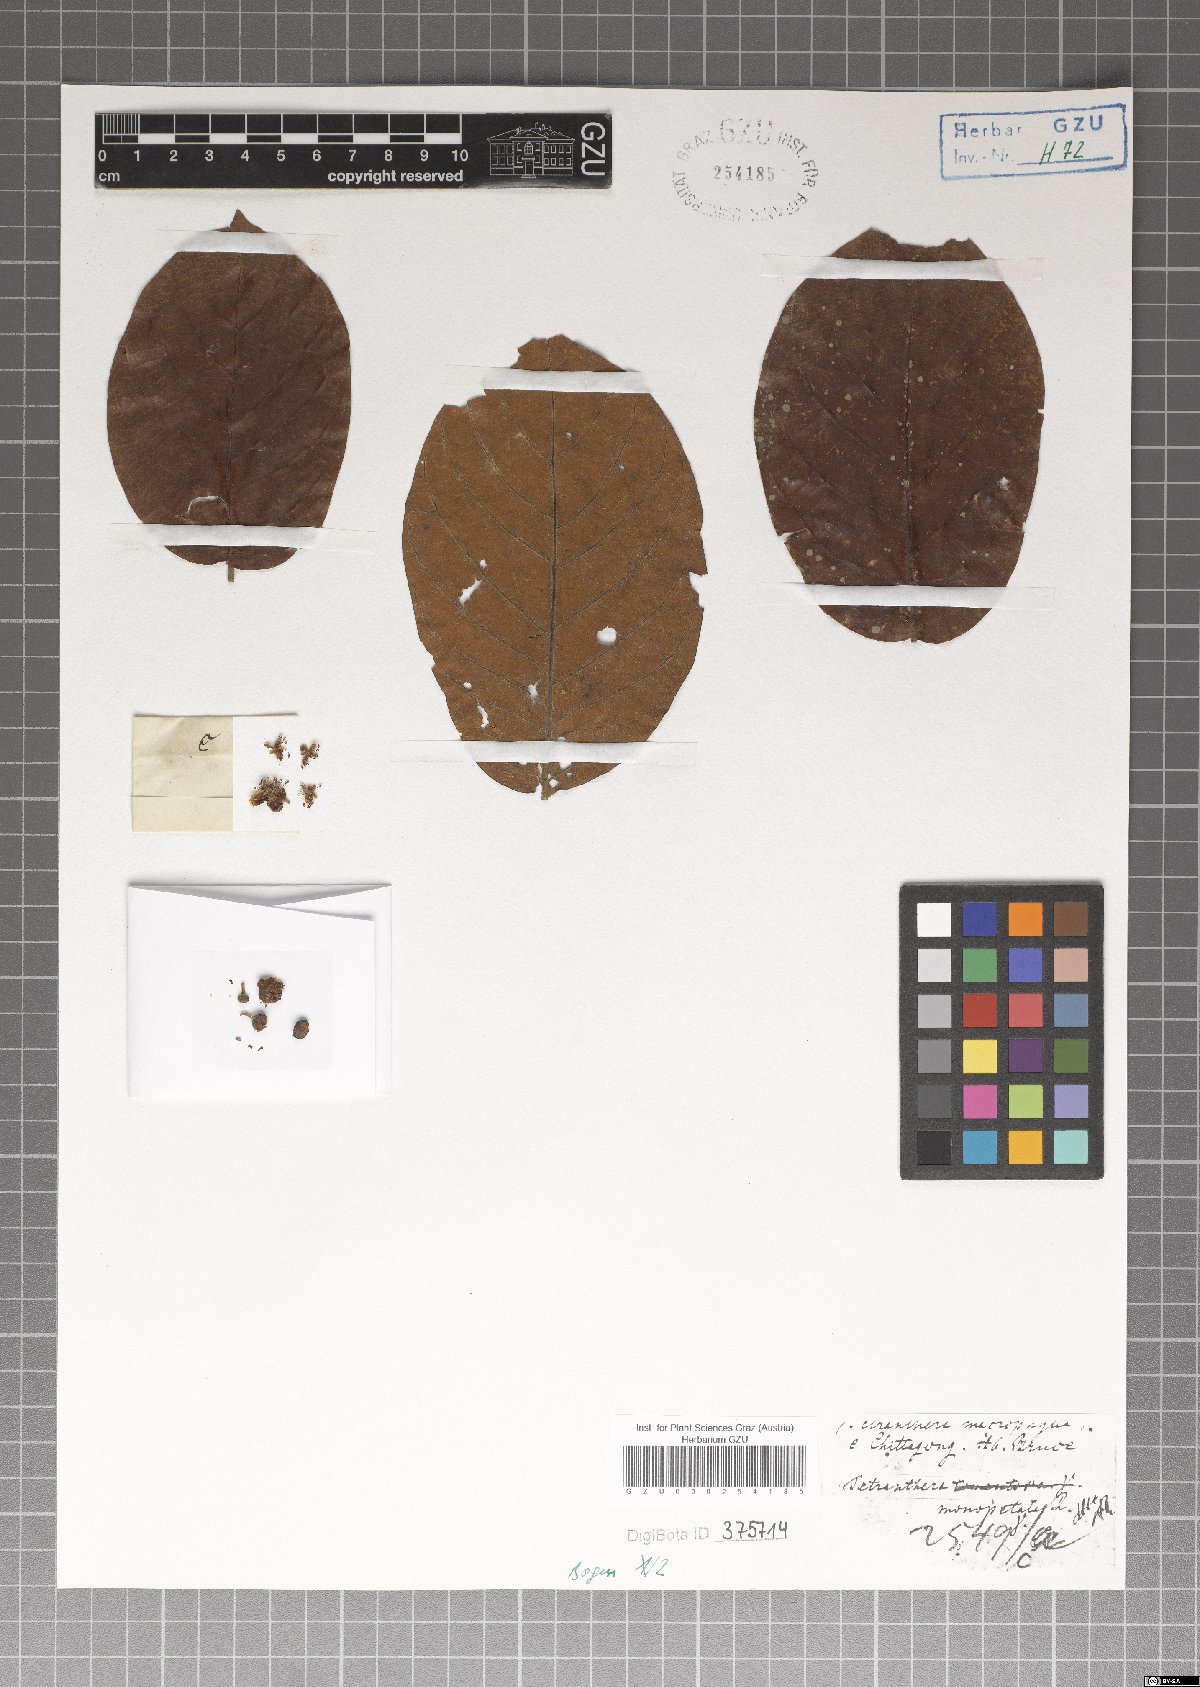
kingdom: Plantae
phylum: Tracheophyta
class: Magnoliopsida
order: Laurales
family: Lauraceae
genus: Litsea
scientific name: Litsea monopetala
